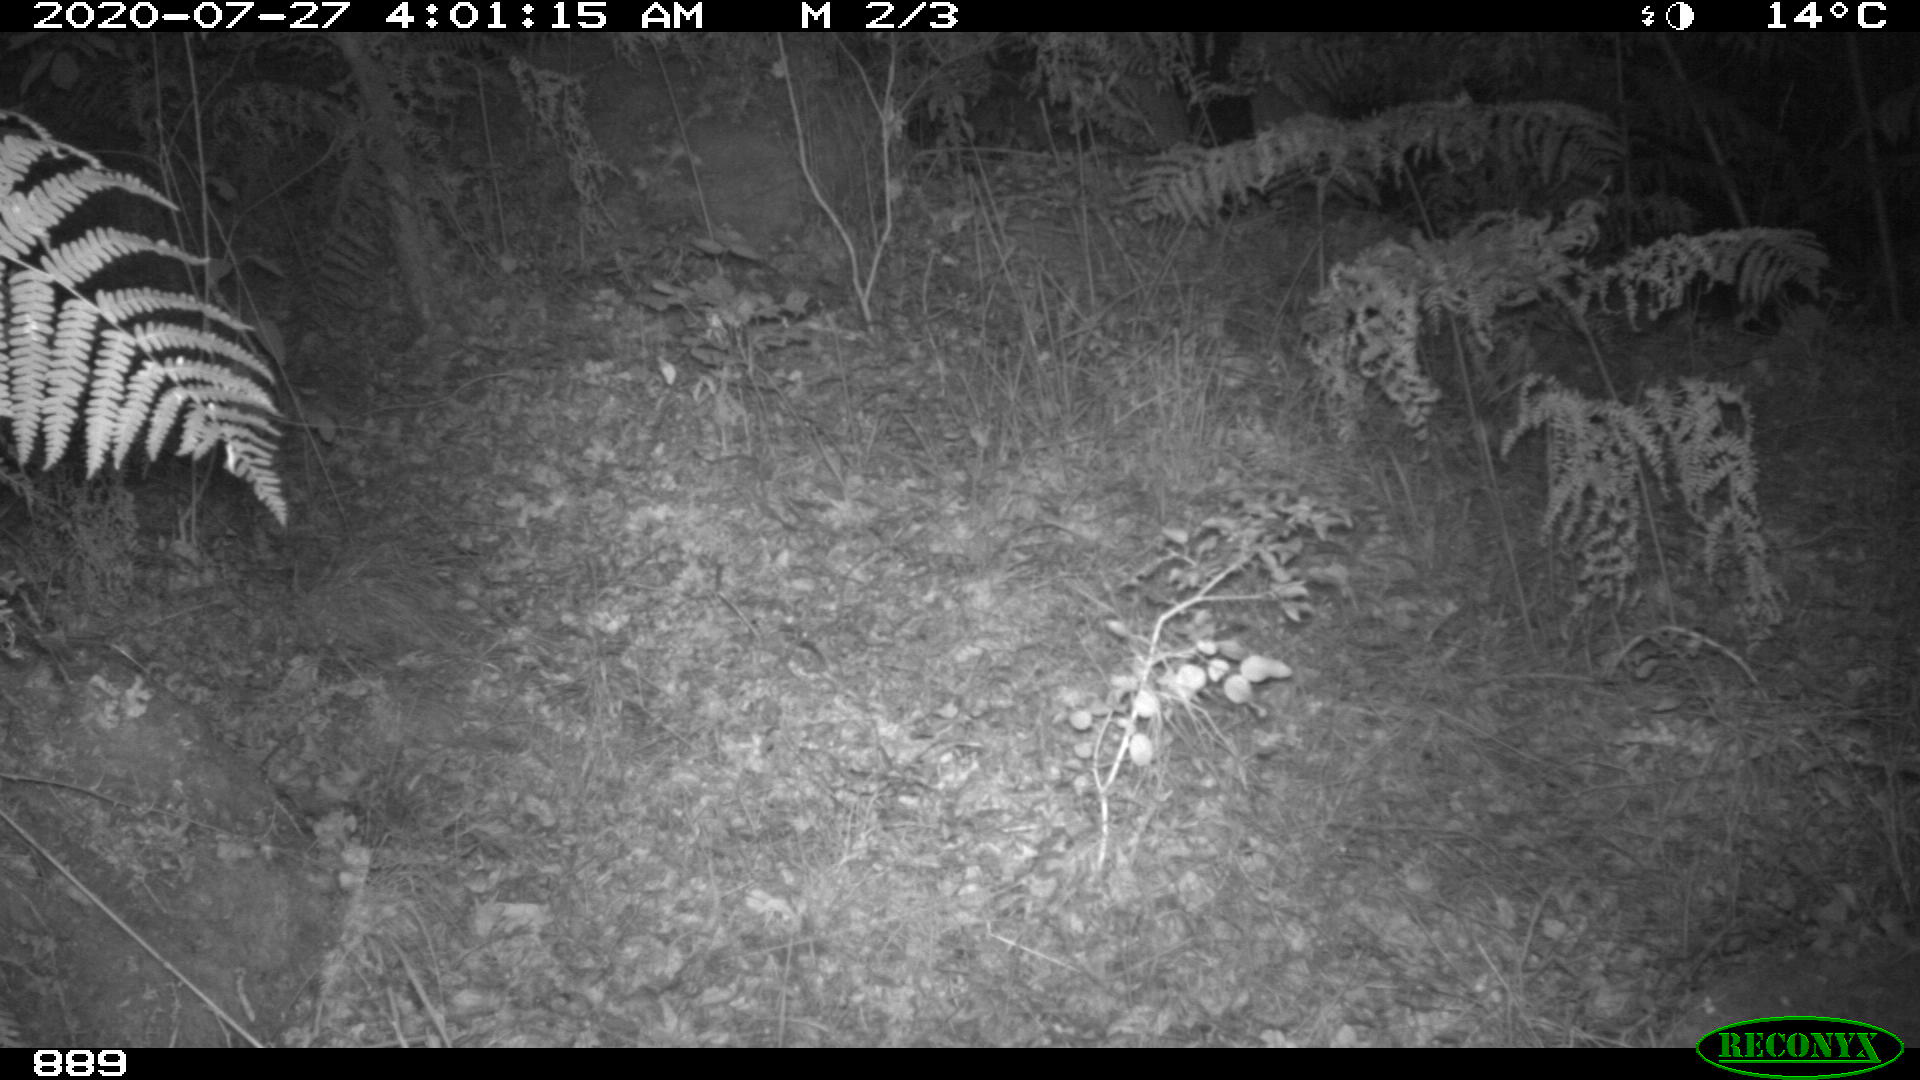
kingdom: Animalia
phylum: Chordata
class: Mammalia
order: Artiodactyla
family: Cervidae
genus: Capreolus
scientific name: Capreolus capreolus
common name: Western roe deer
